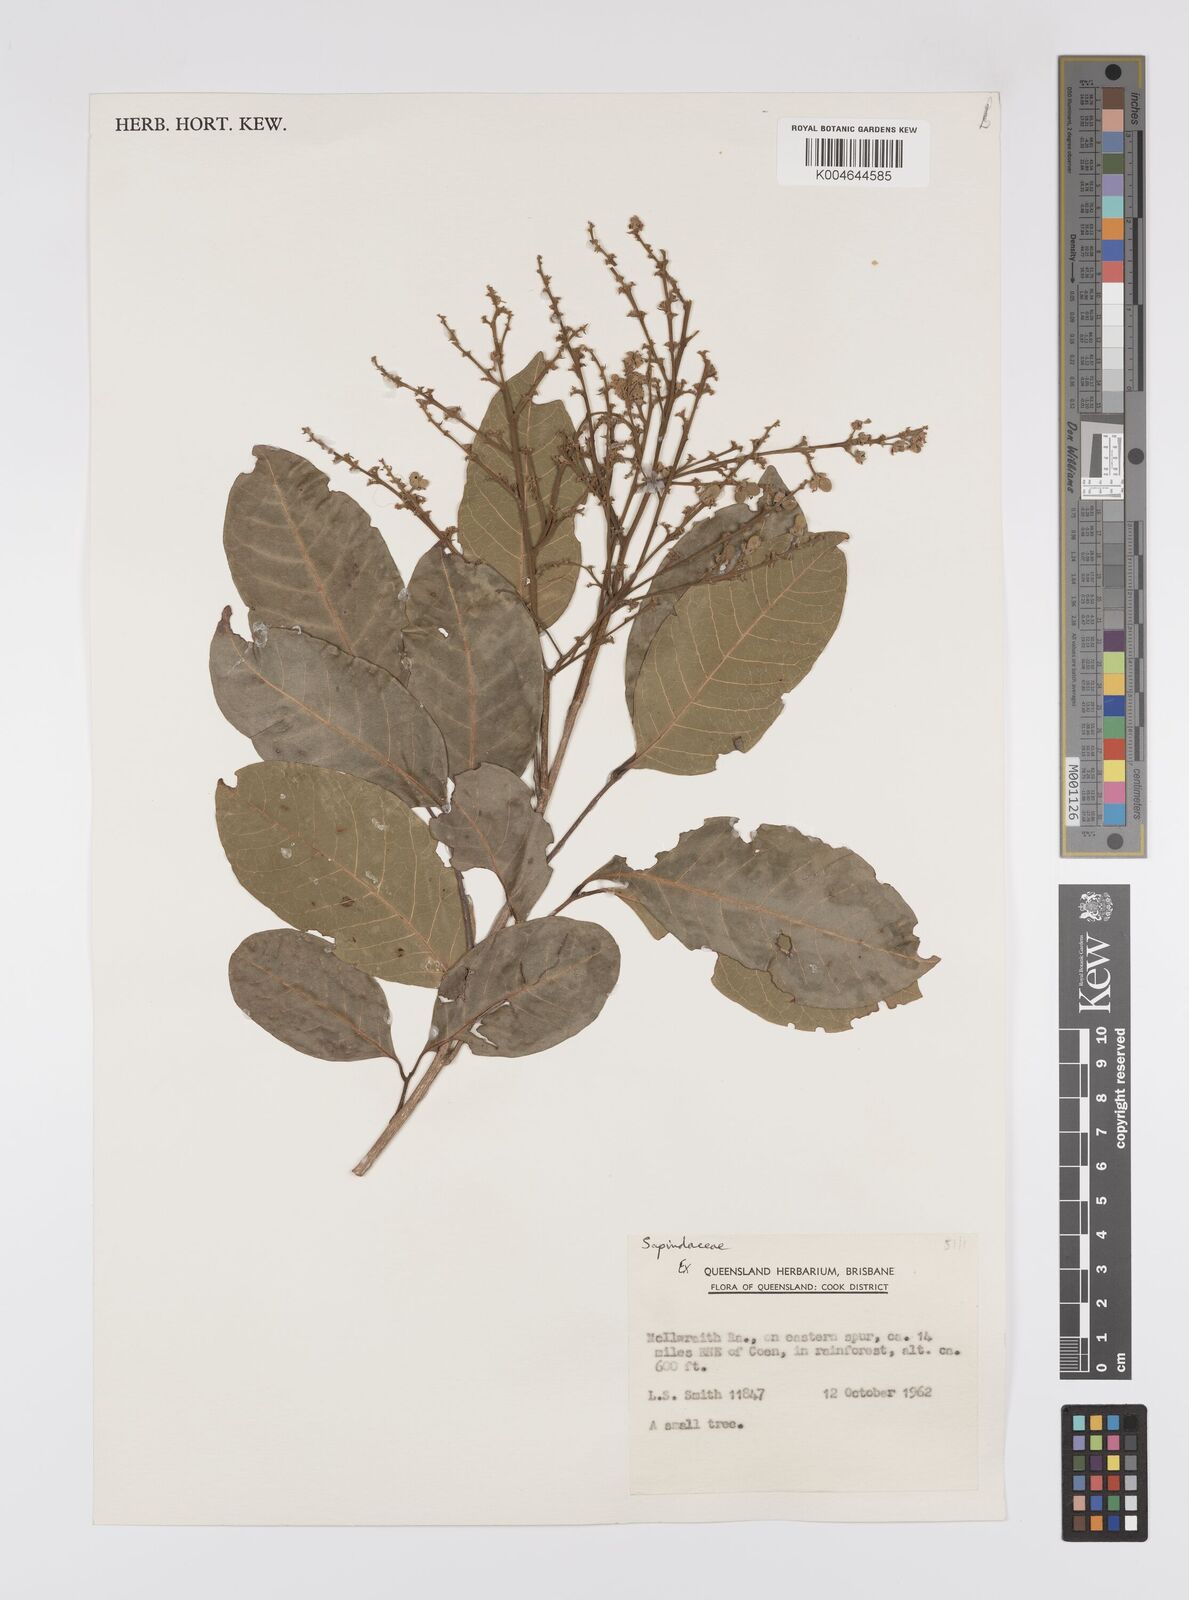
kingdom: Plantae
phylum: Tracheophyta
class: Magnoliopsida
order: Sapindales
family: Sapindaceae
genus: Synima
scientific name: Synima
